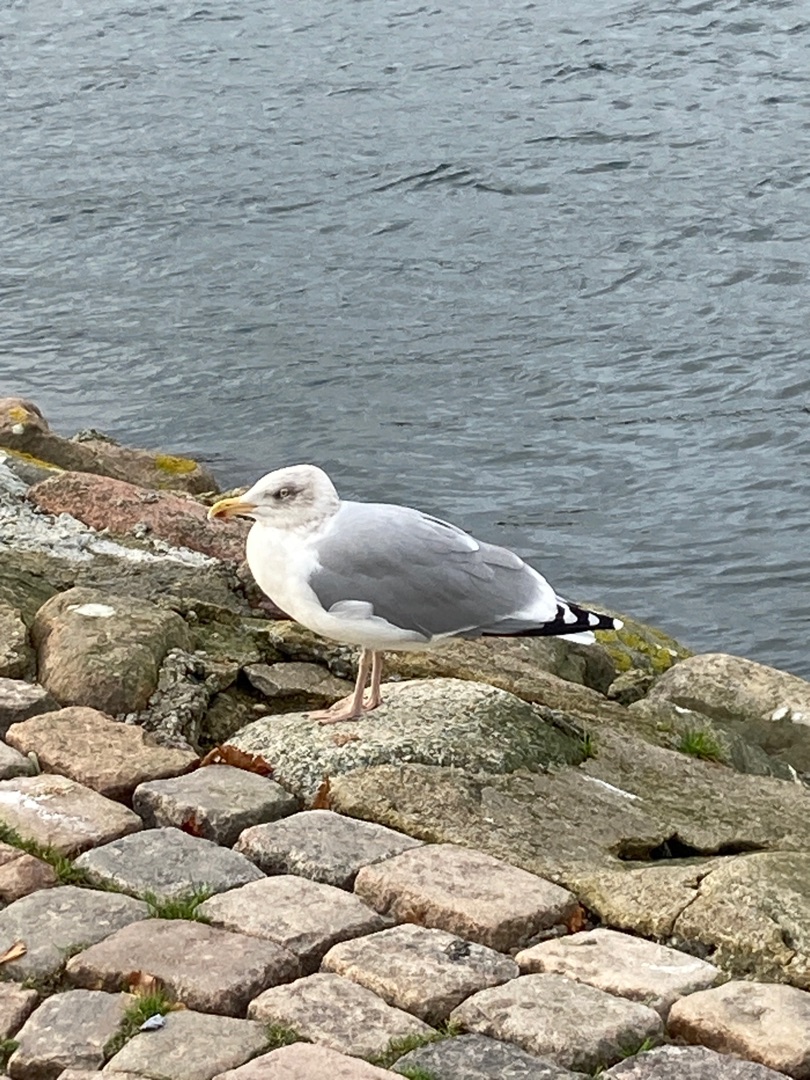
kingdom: Animalia
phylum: Chordata
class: Aves
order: Charadriiformes
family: Laridae
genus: Larus
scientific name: Larus argentatus
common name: Sølvmåge
